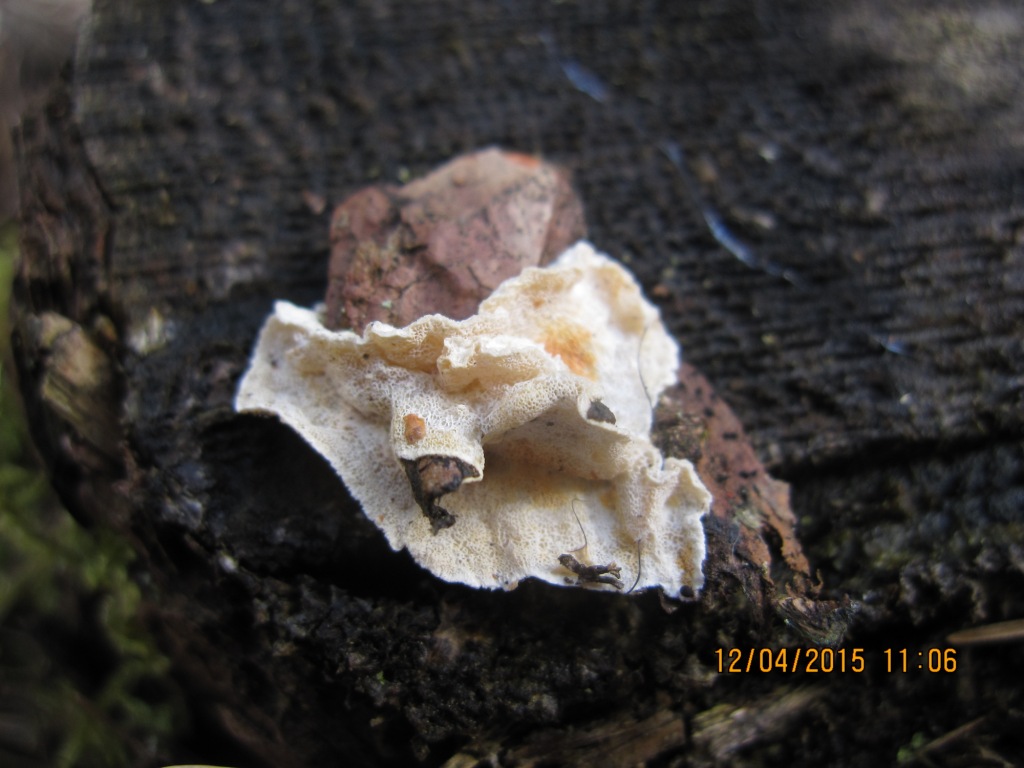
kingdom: Fungi
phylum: Basidiomycota
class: Agaricomycetes
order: Polyporales
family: Incrustoporiaceae
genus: Skeletocutis
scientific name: Skeletocutis amorpha
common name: orange krystalporesvamp
